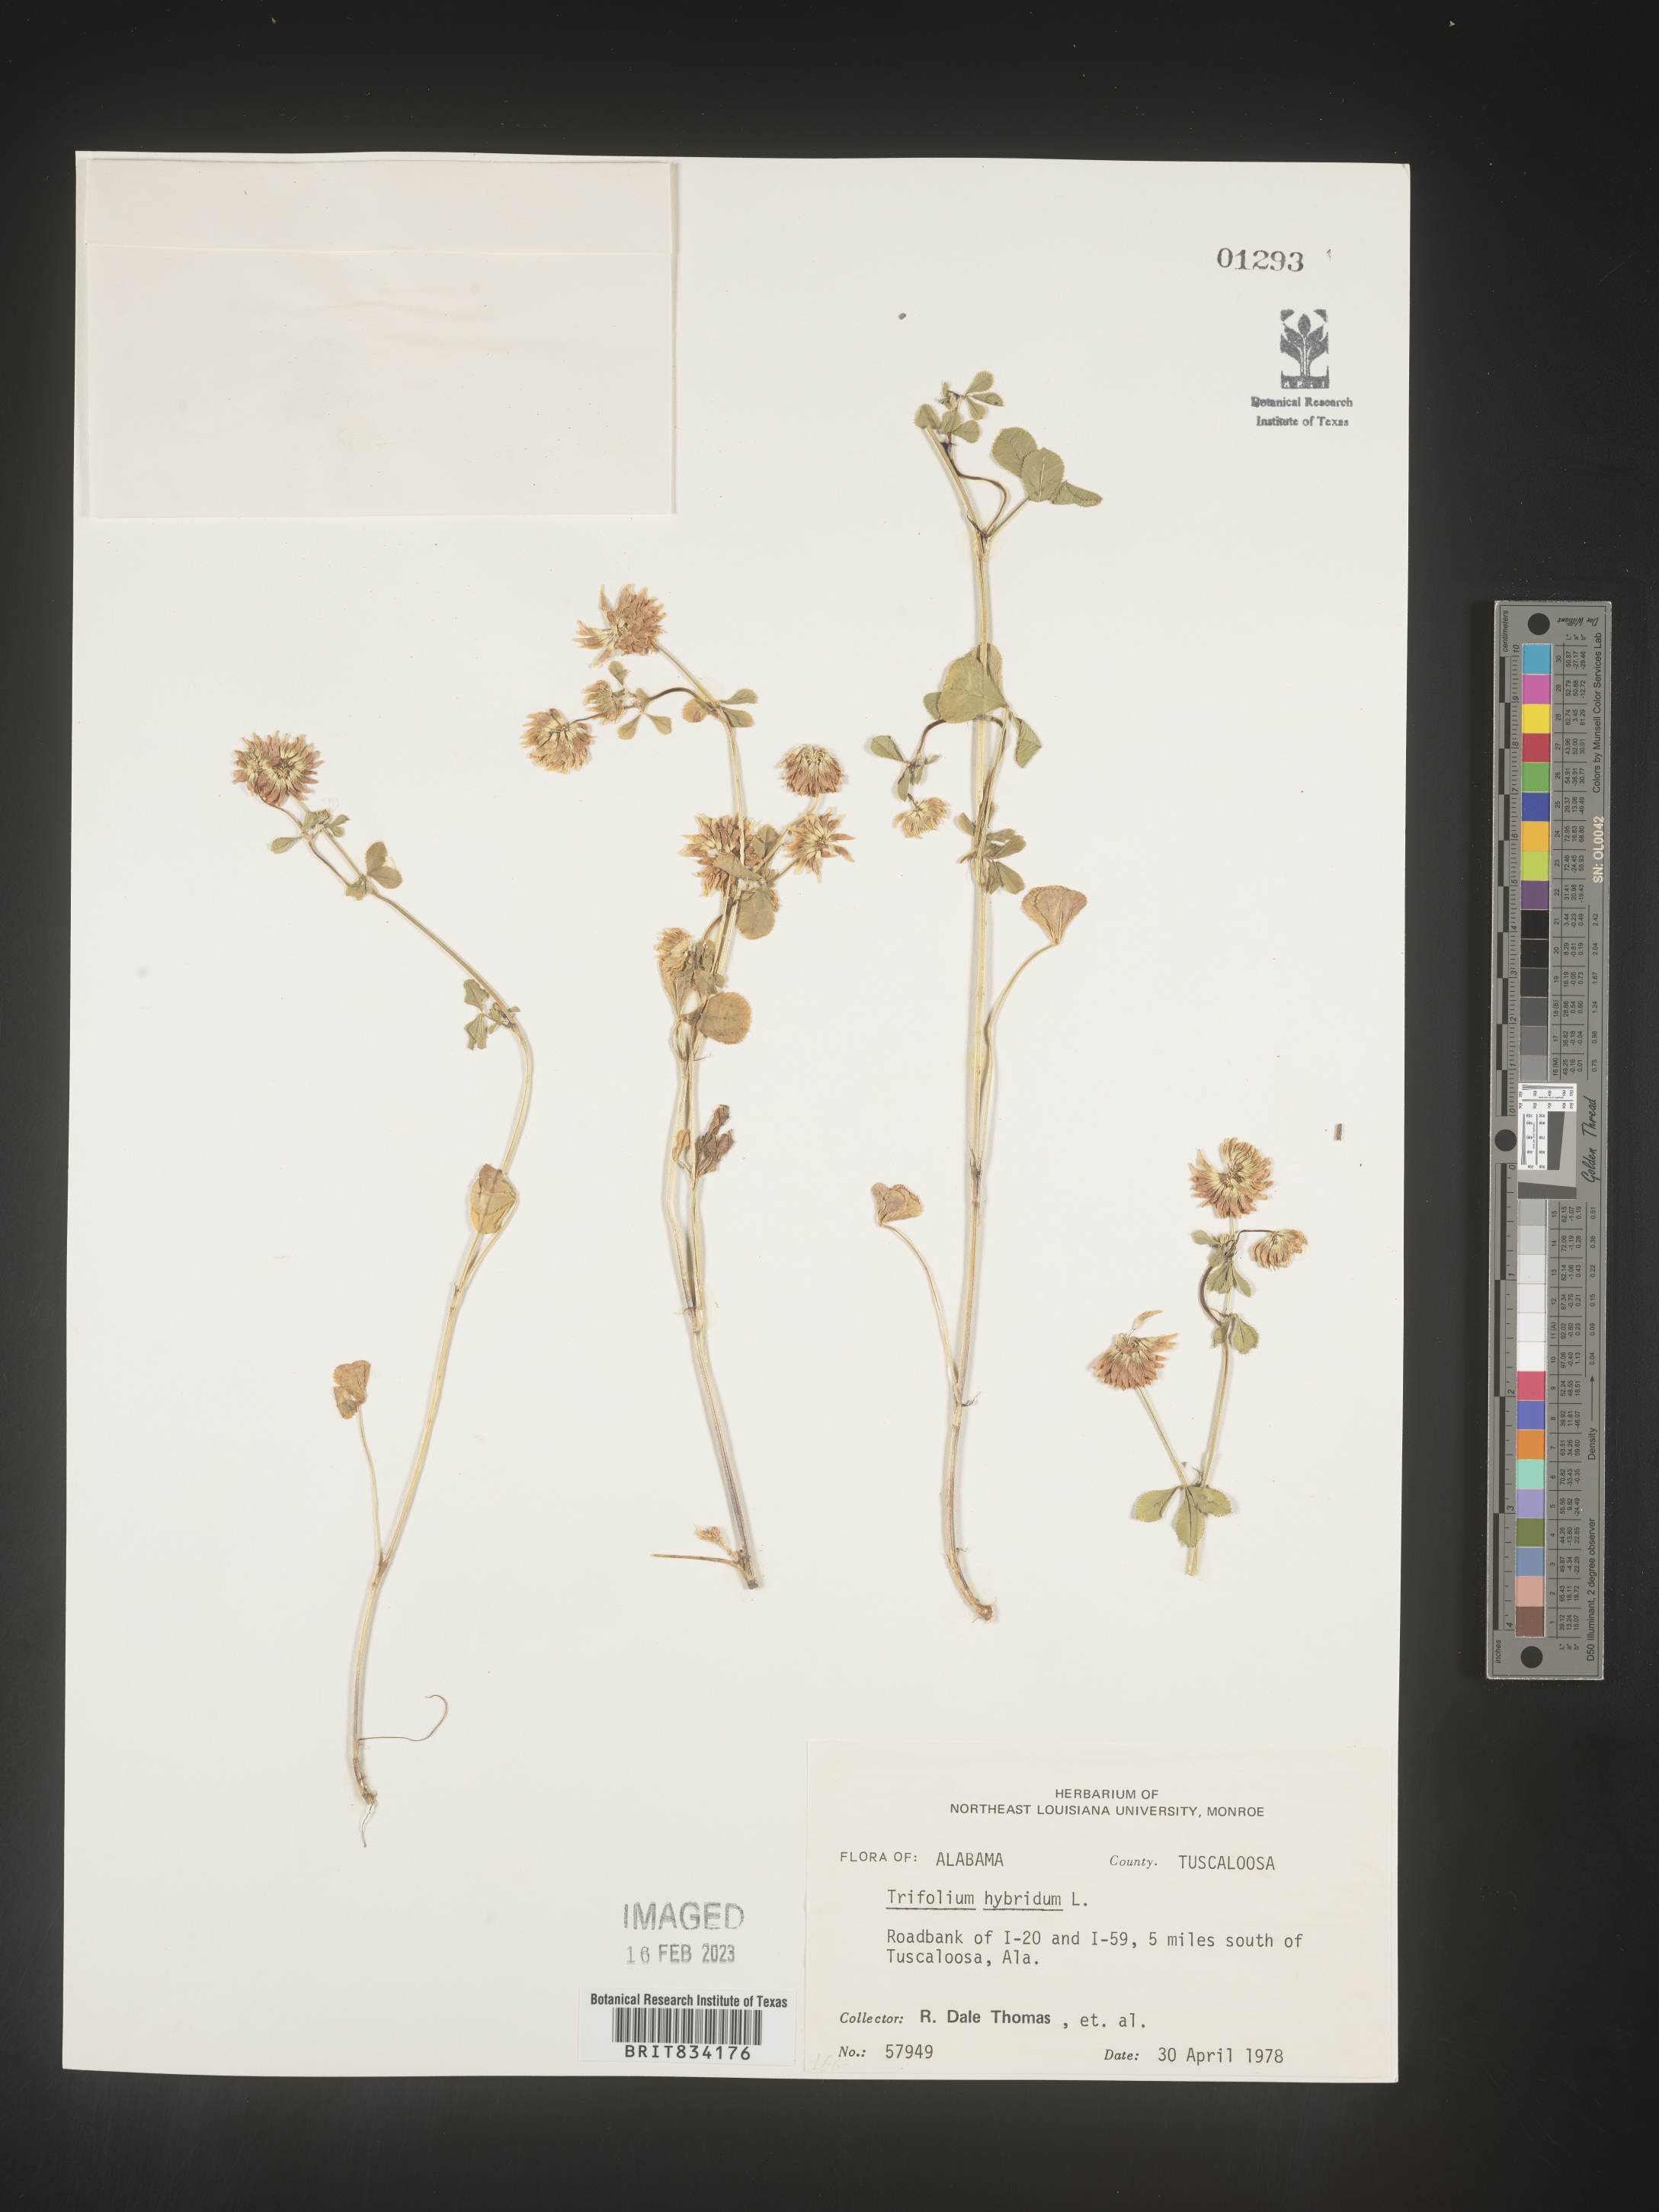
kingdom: Plantae
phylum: Tracheophyta
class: Magnoliopsida
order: Fabales
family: Fabaceae
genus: Trifolium
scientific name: Trifolium hybridum
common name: Alsike clover
